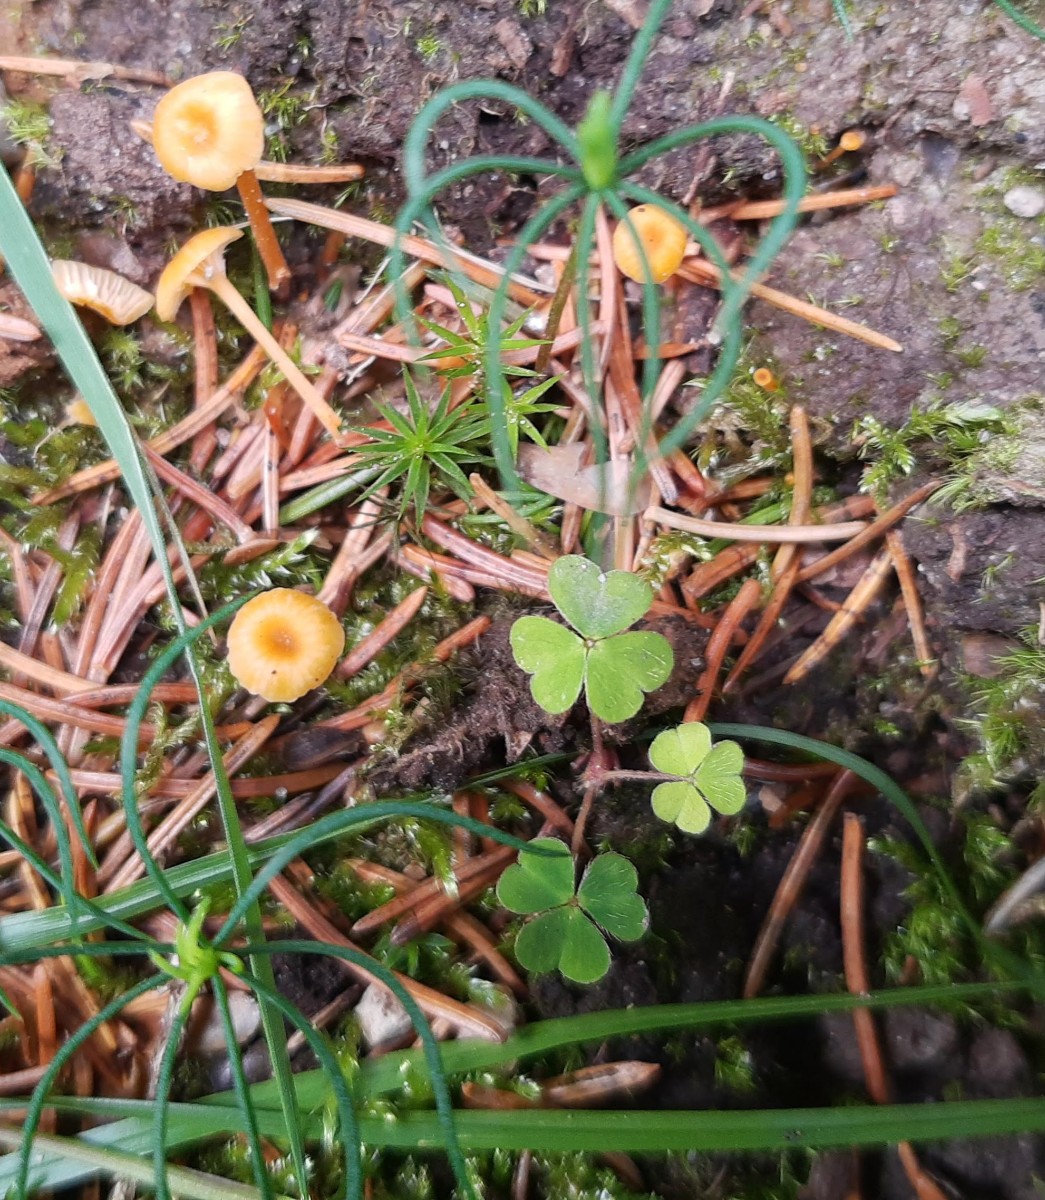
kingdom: Fungi
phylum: Basidiomycota
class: Agaricomycetes
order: Hymenochaetales
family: Rickenellaceae
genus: Rickenella
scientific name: Rickenella fibula
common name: orange mosnavlehat
